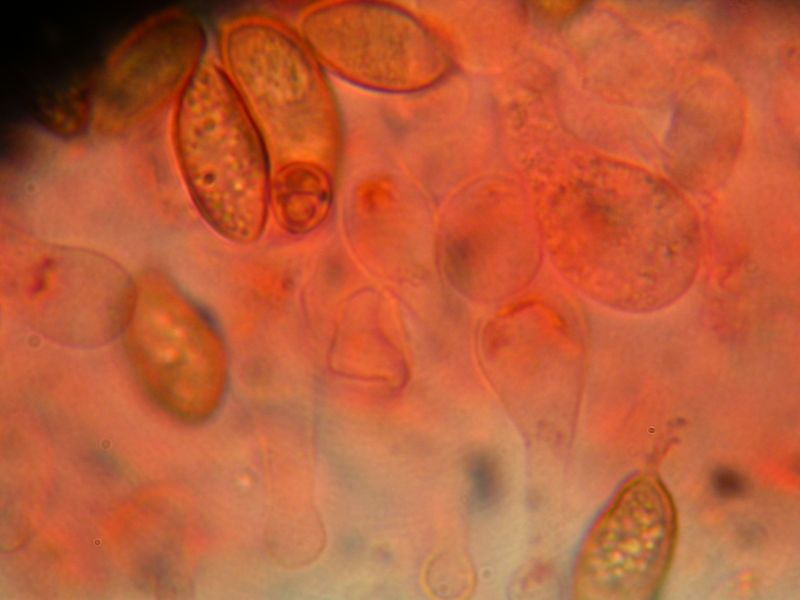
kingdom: Fungi
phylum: Basidiomycota
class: Agaricomycetes
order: Agaricales
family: Hymenogastraceae
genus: Galerina
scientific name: Galerina subclavata
